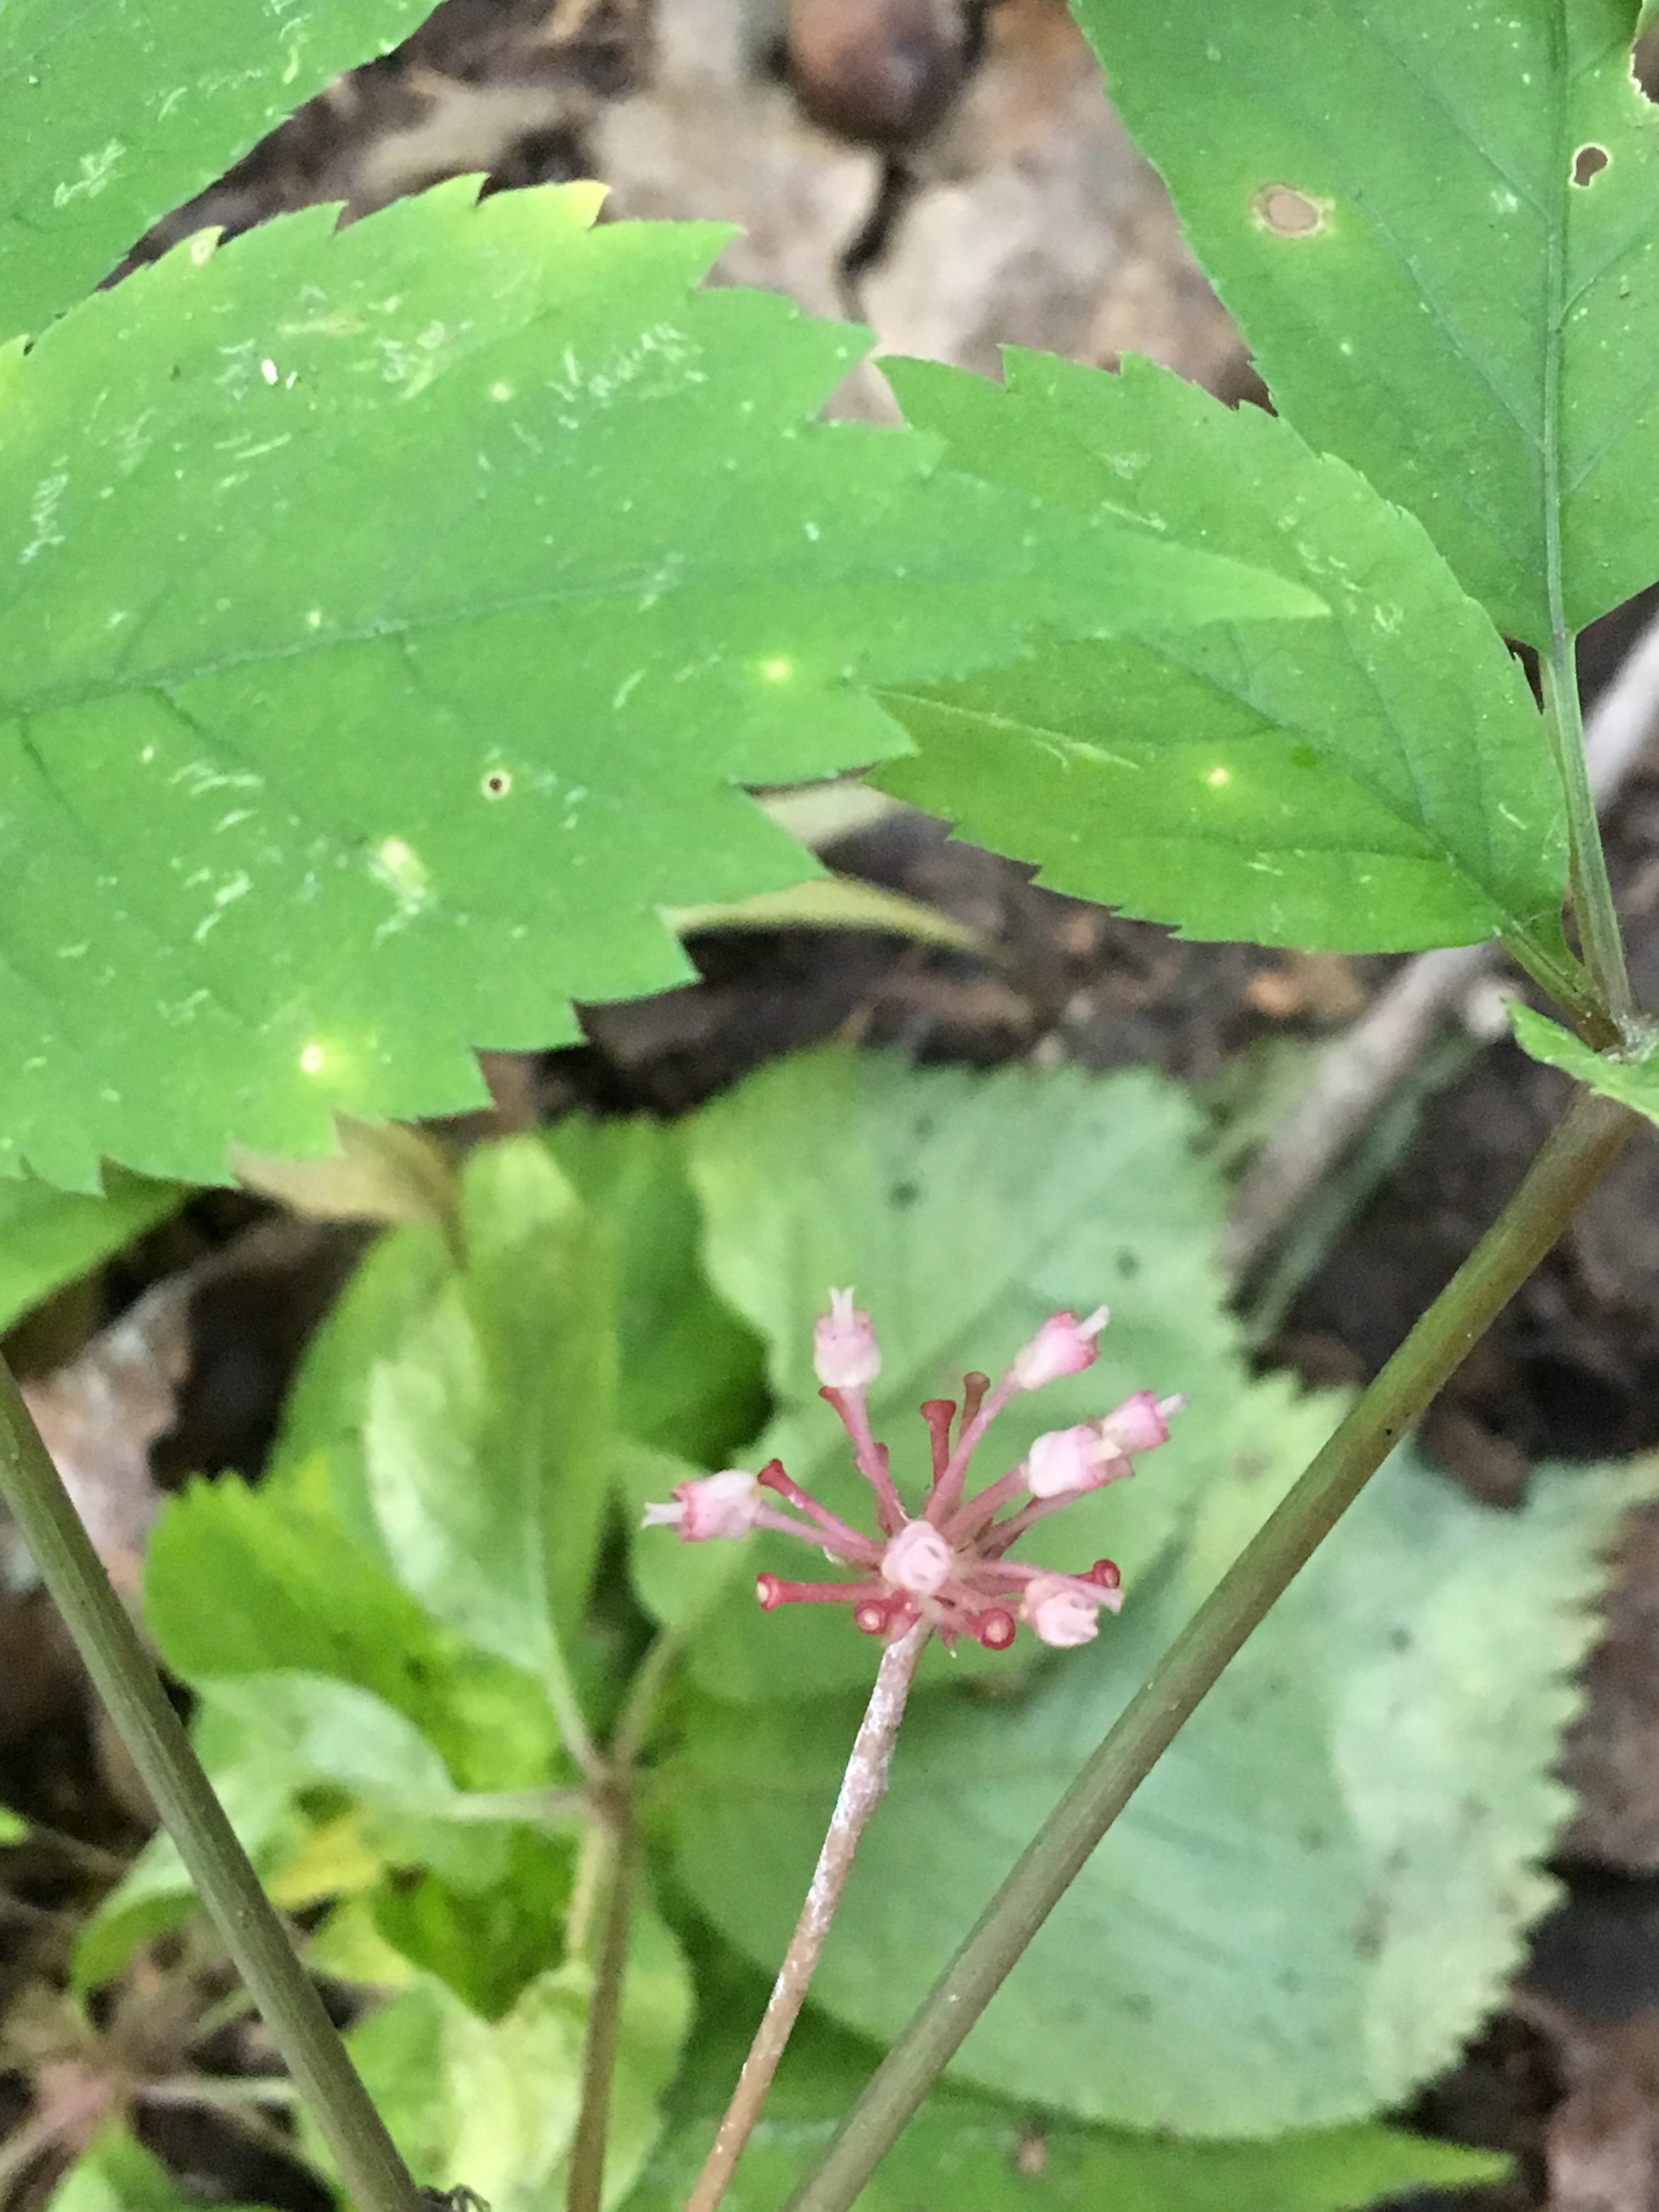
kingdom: Plantae
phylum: Tracheophyta
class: Magnoliopsida
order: Apiales
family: Araliaceae
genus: Panax
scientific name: Panax quinquefolius
